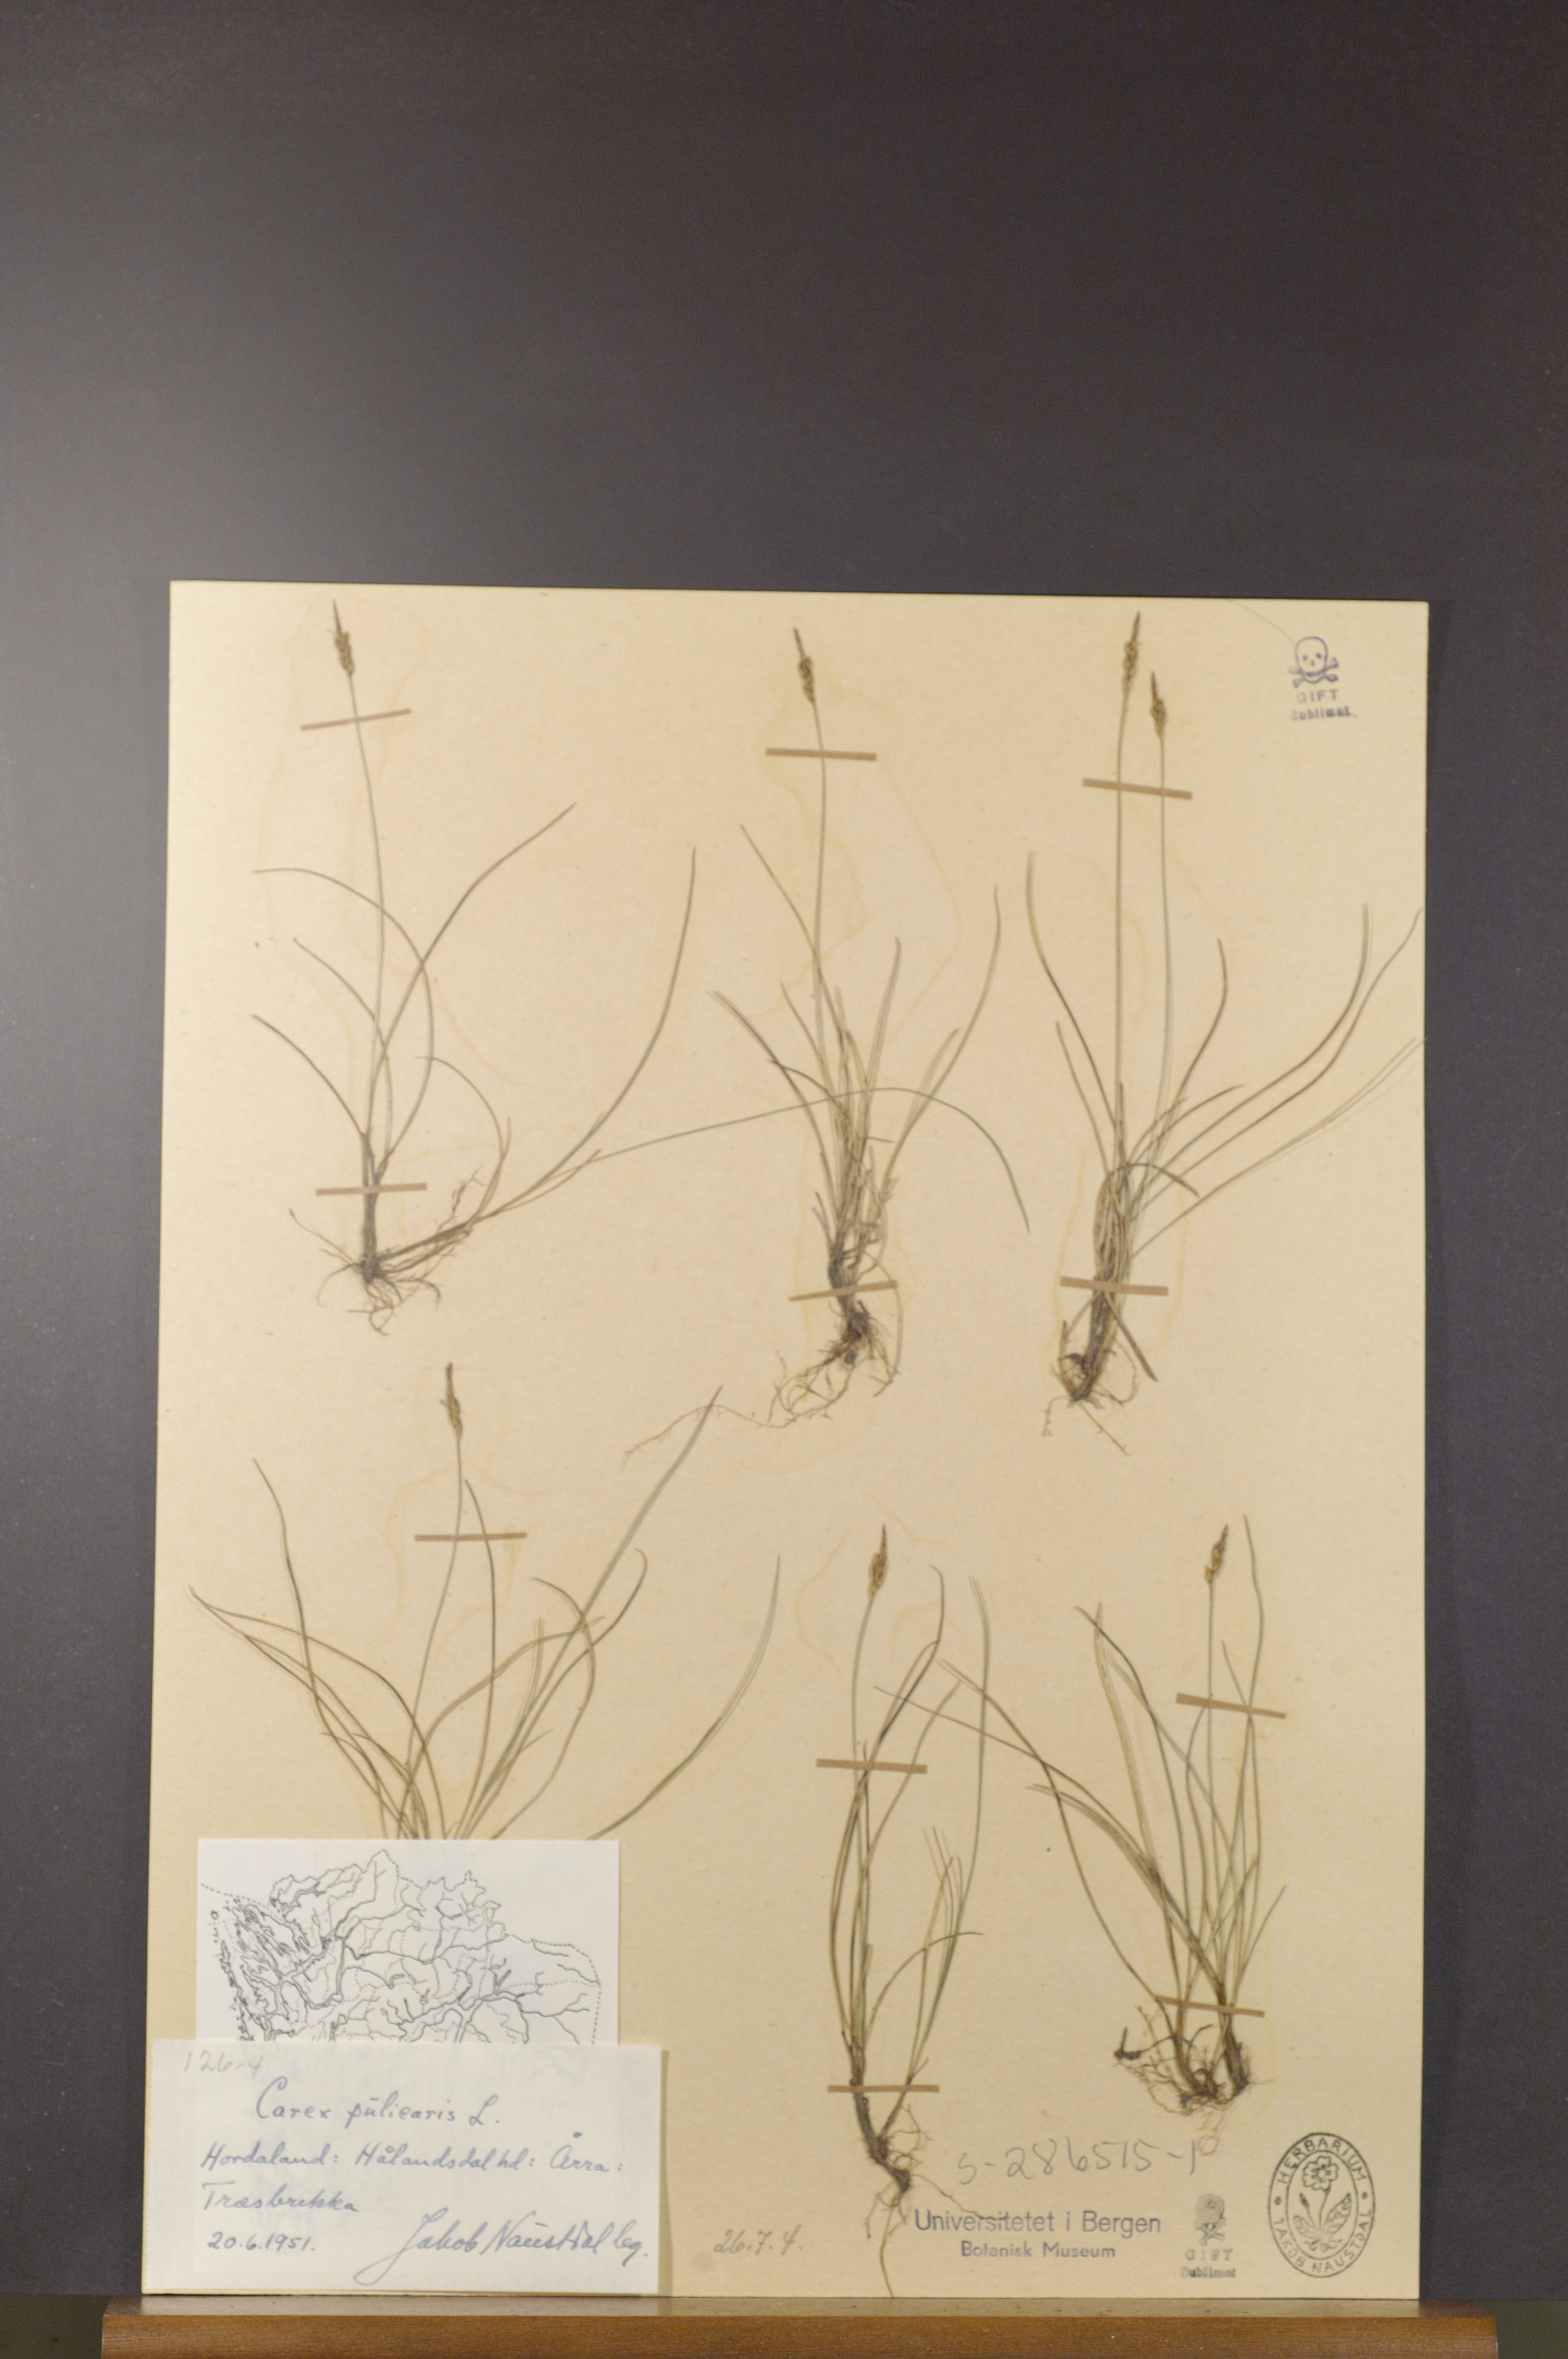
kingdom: Plantae
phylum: Tracheophyta
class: Liliopsida
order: Poales
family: Cyperaceae
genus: Carex
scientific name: Carex pulicaris
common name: Flea sedge
